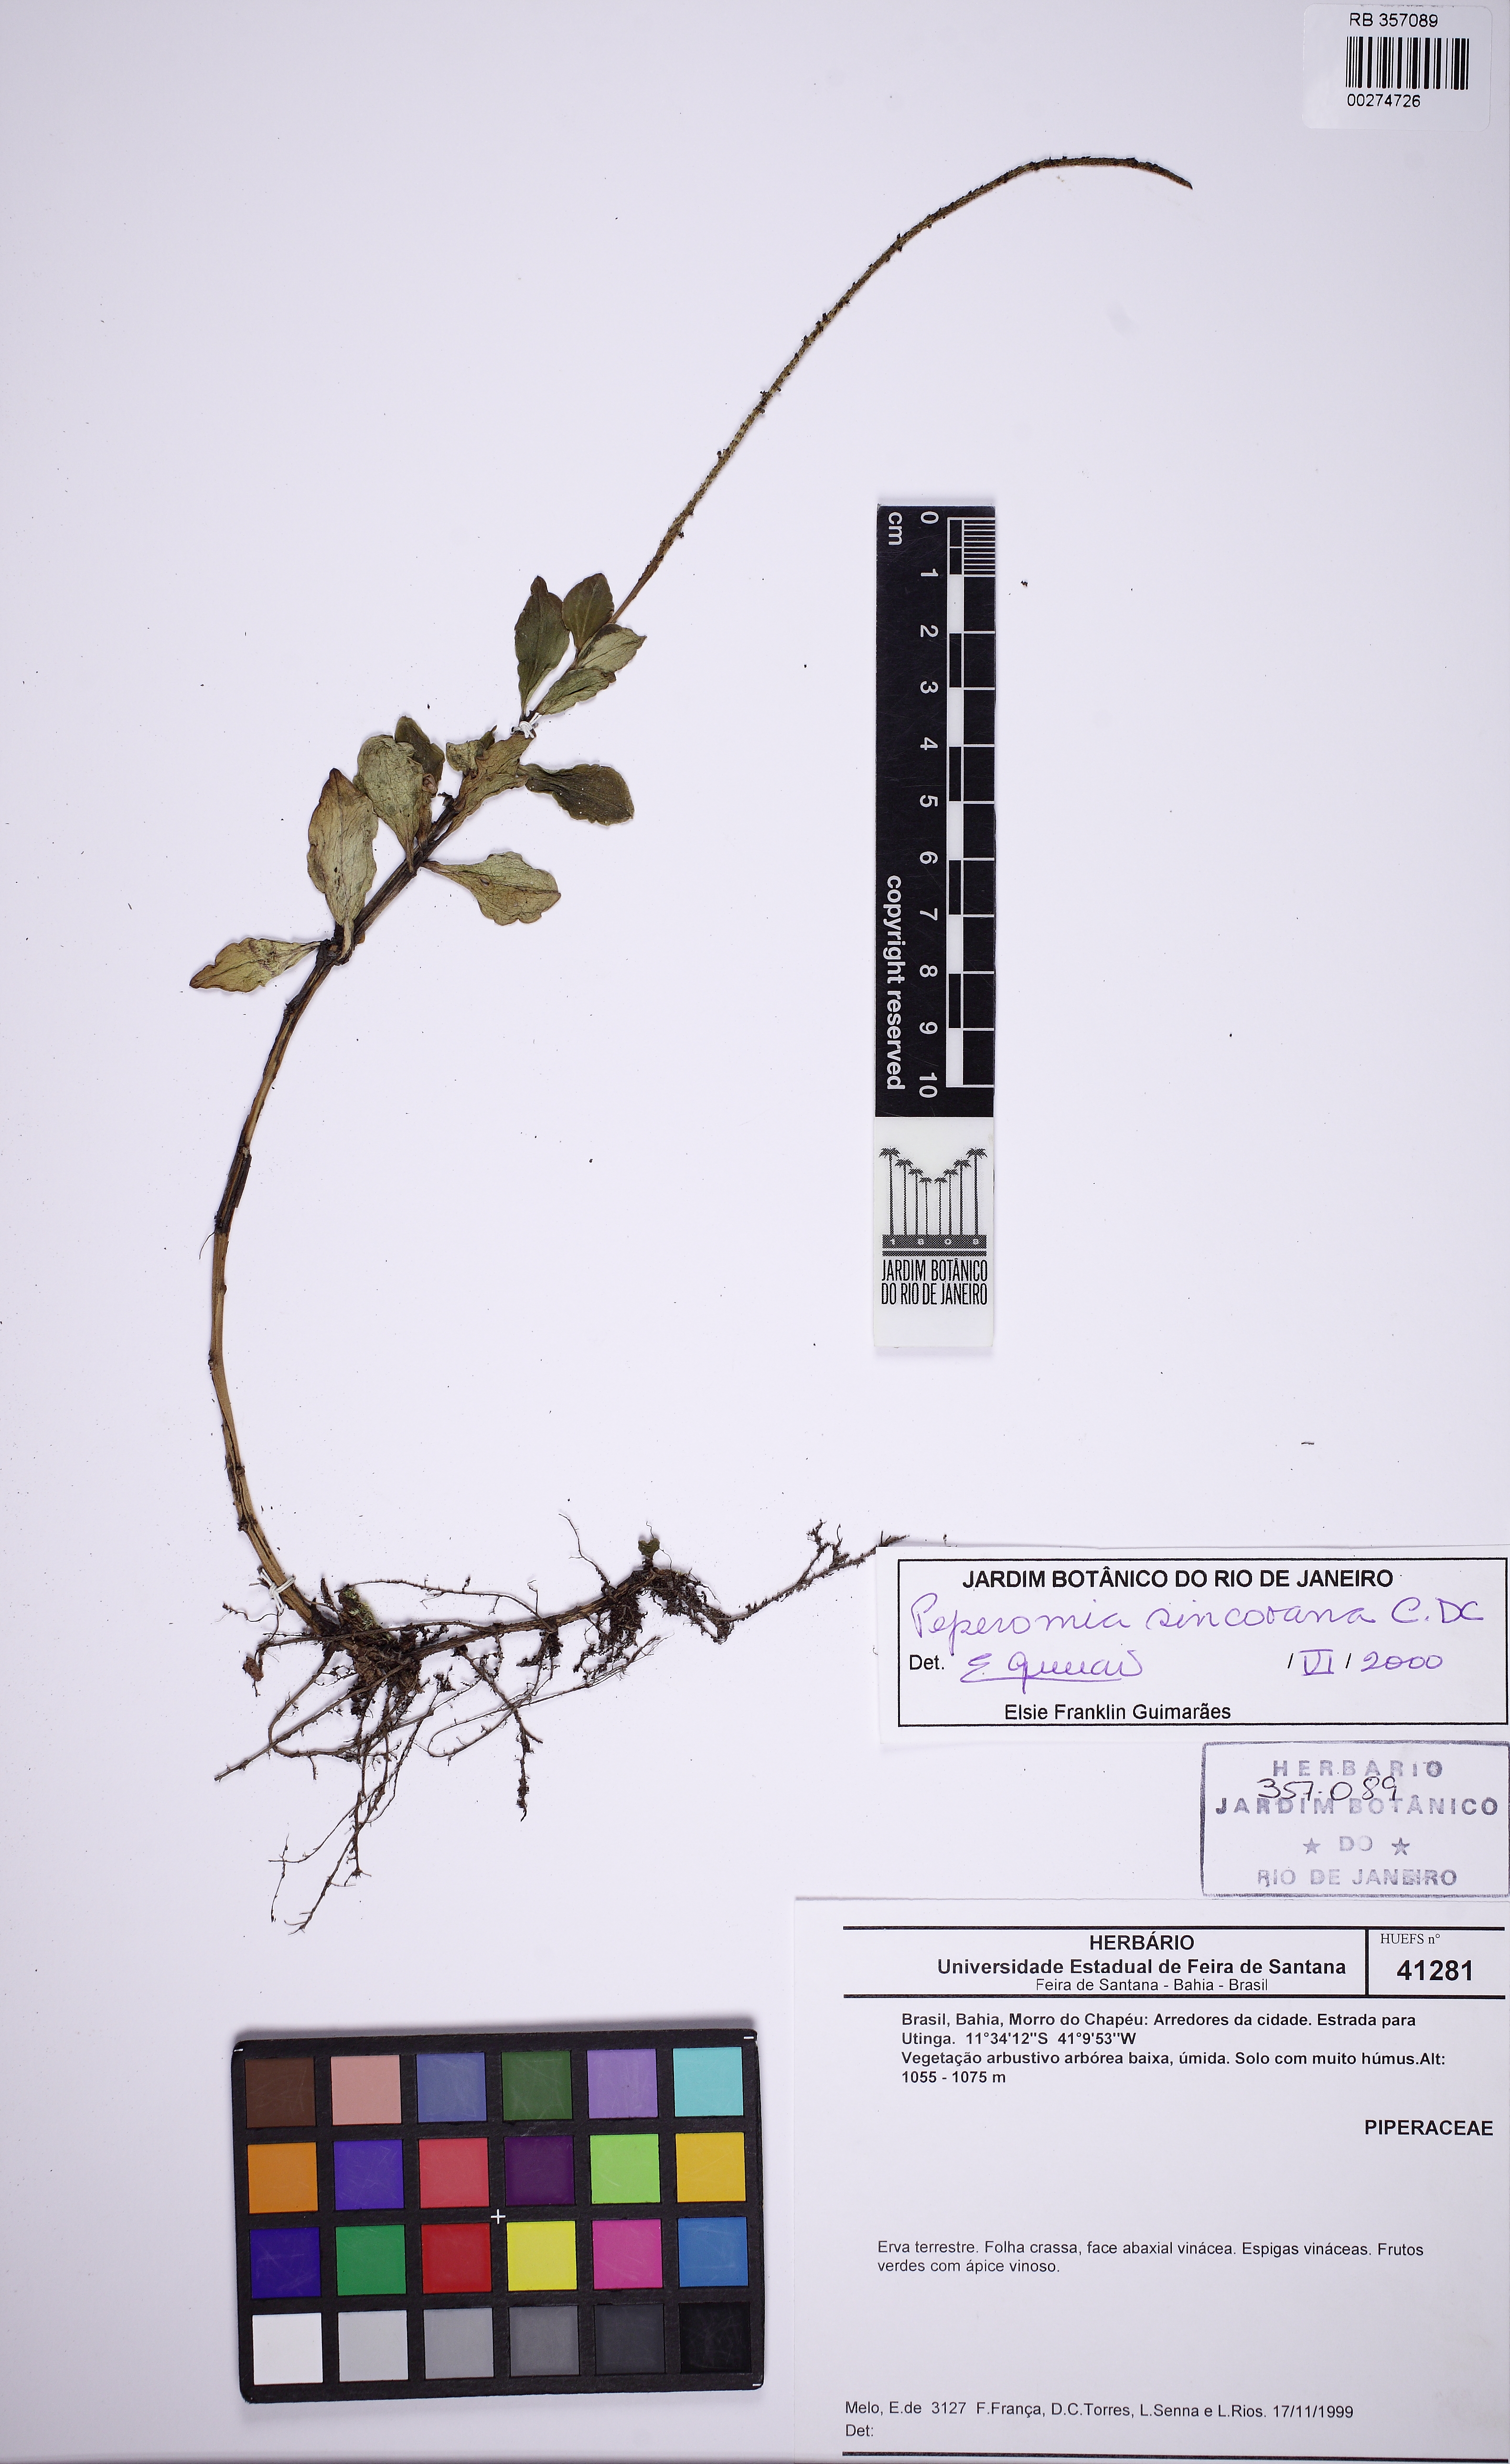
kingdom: Plantae
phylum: Tracheophyta
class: Magnoliopsida
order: Piperales
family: Piperaceae
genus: Peperomia
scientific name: Peperomia sincorana
